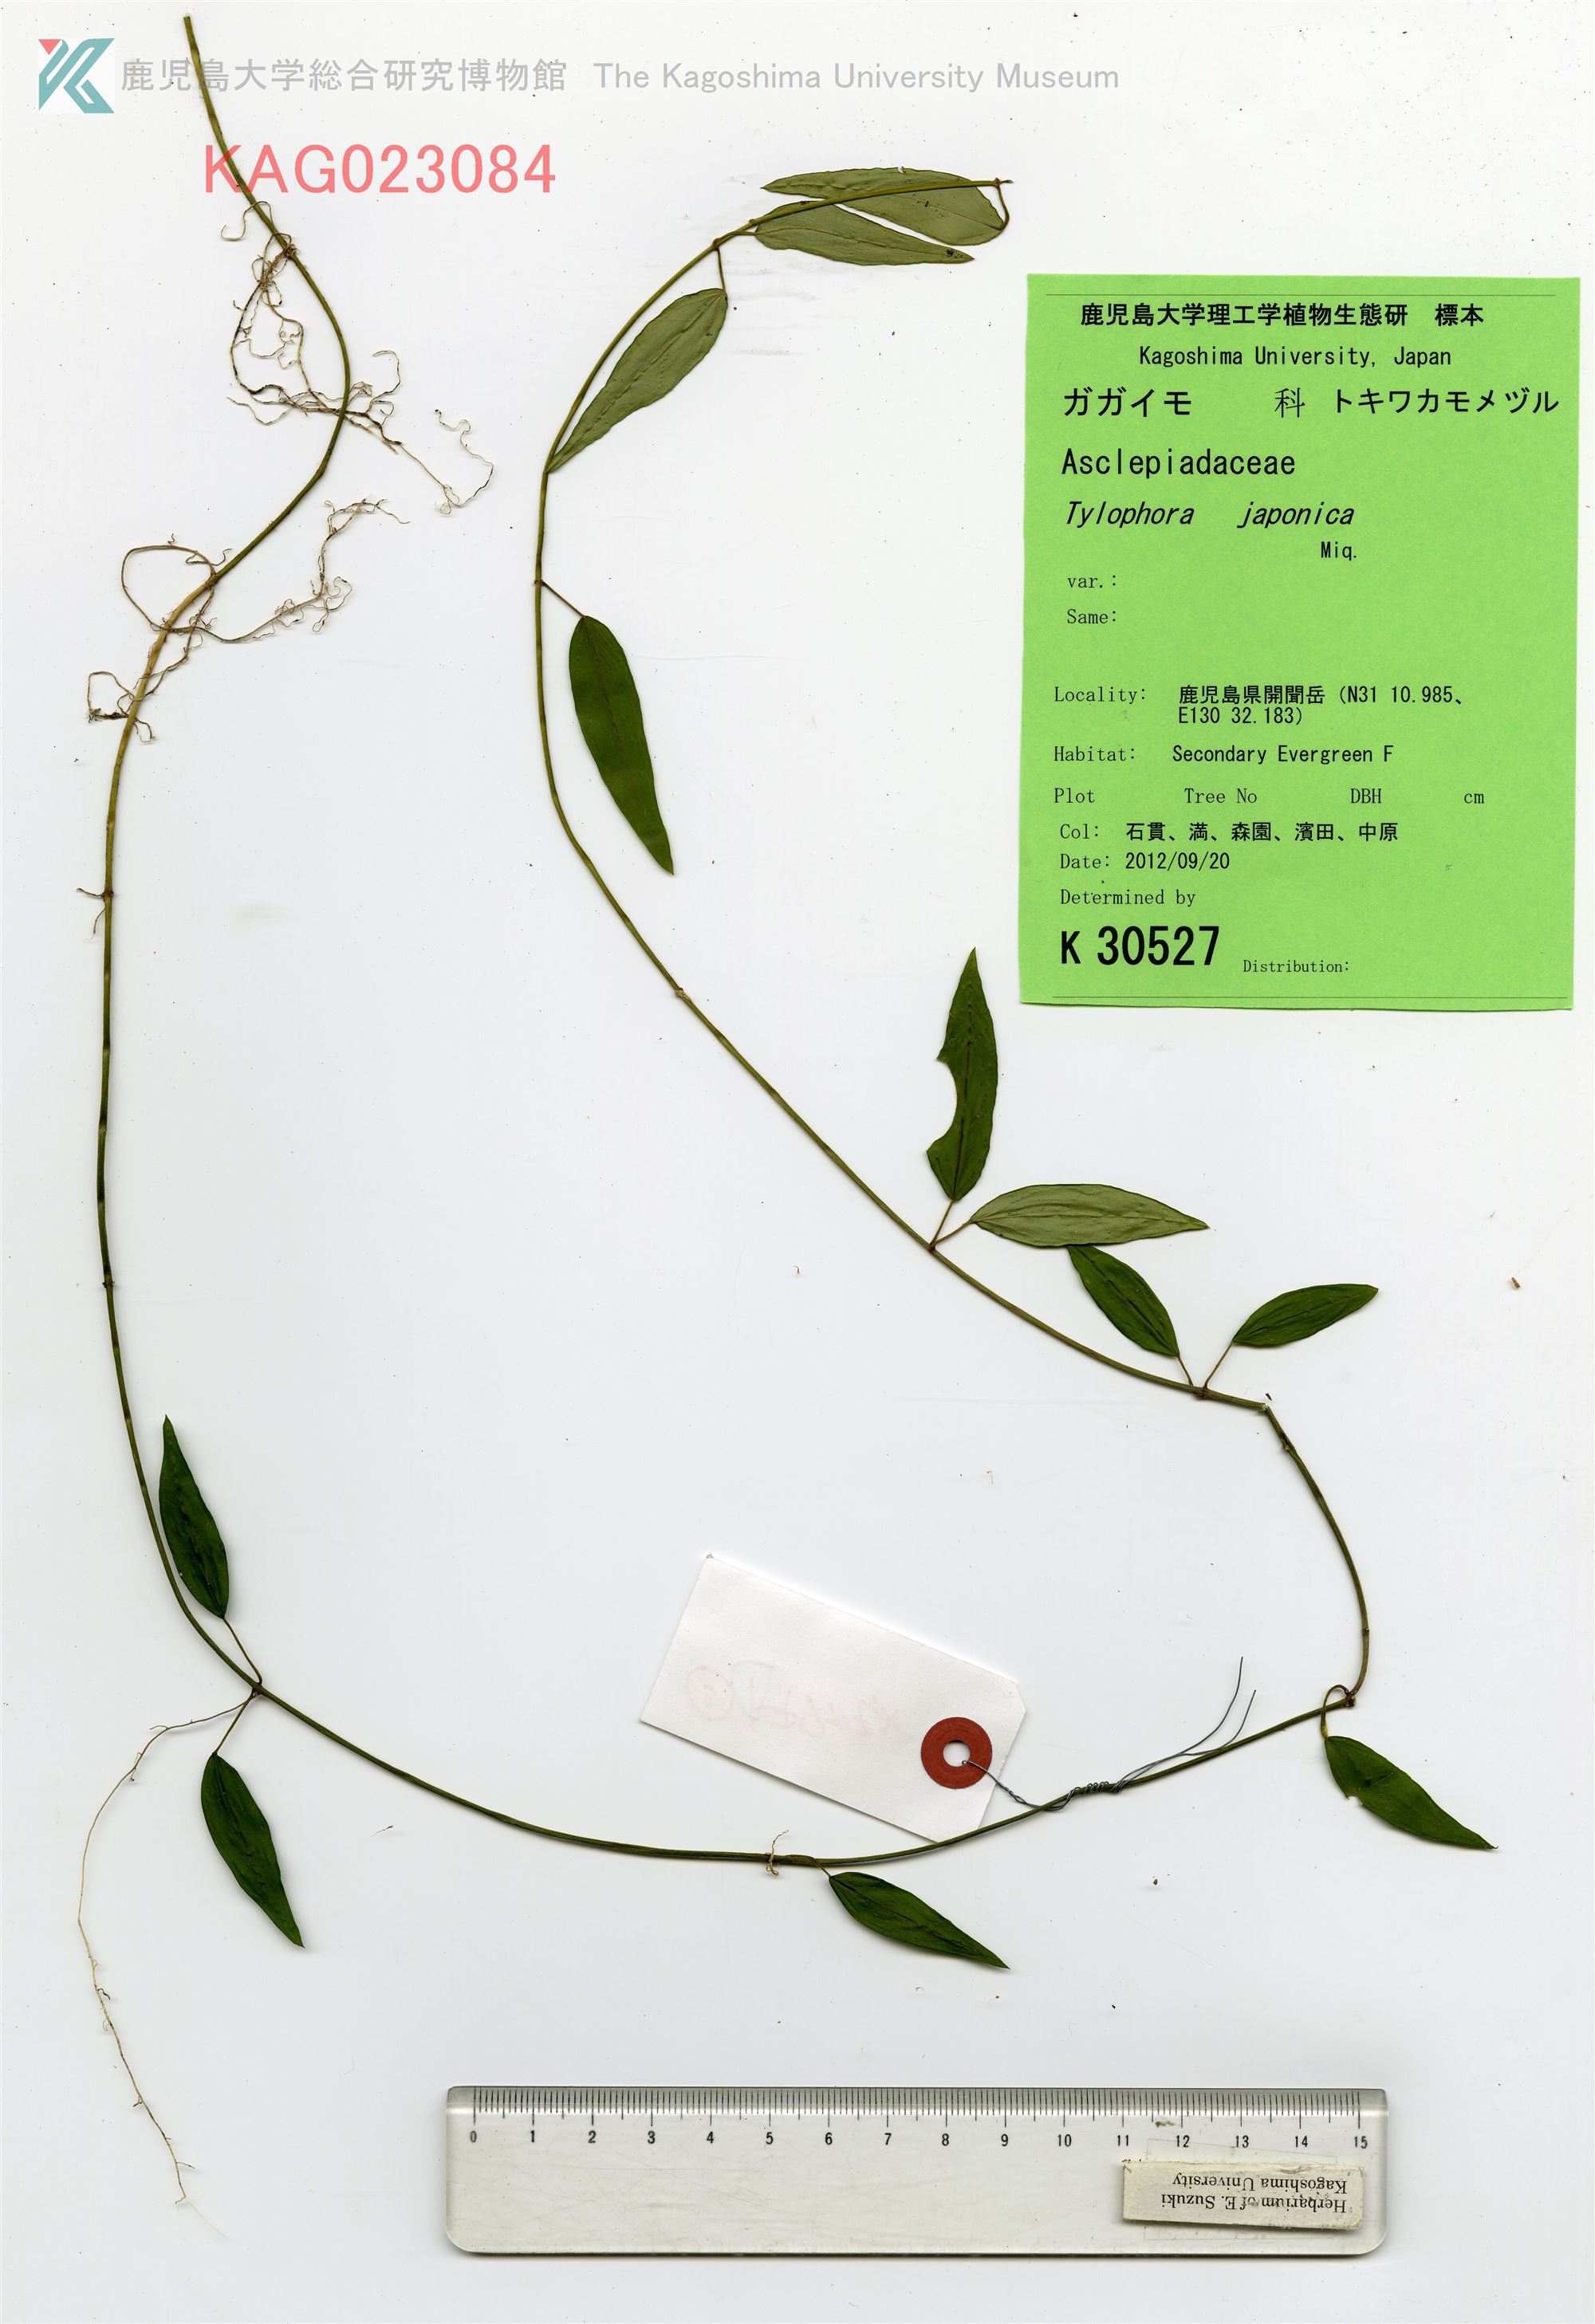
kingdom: Plantae
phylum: Tracheophyta
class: Magnoliopsida
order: Gentianales
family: Apocynaceae
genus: Vincetoxicum
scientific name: Vincetoxicum sieboldii
